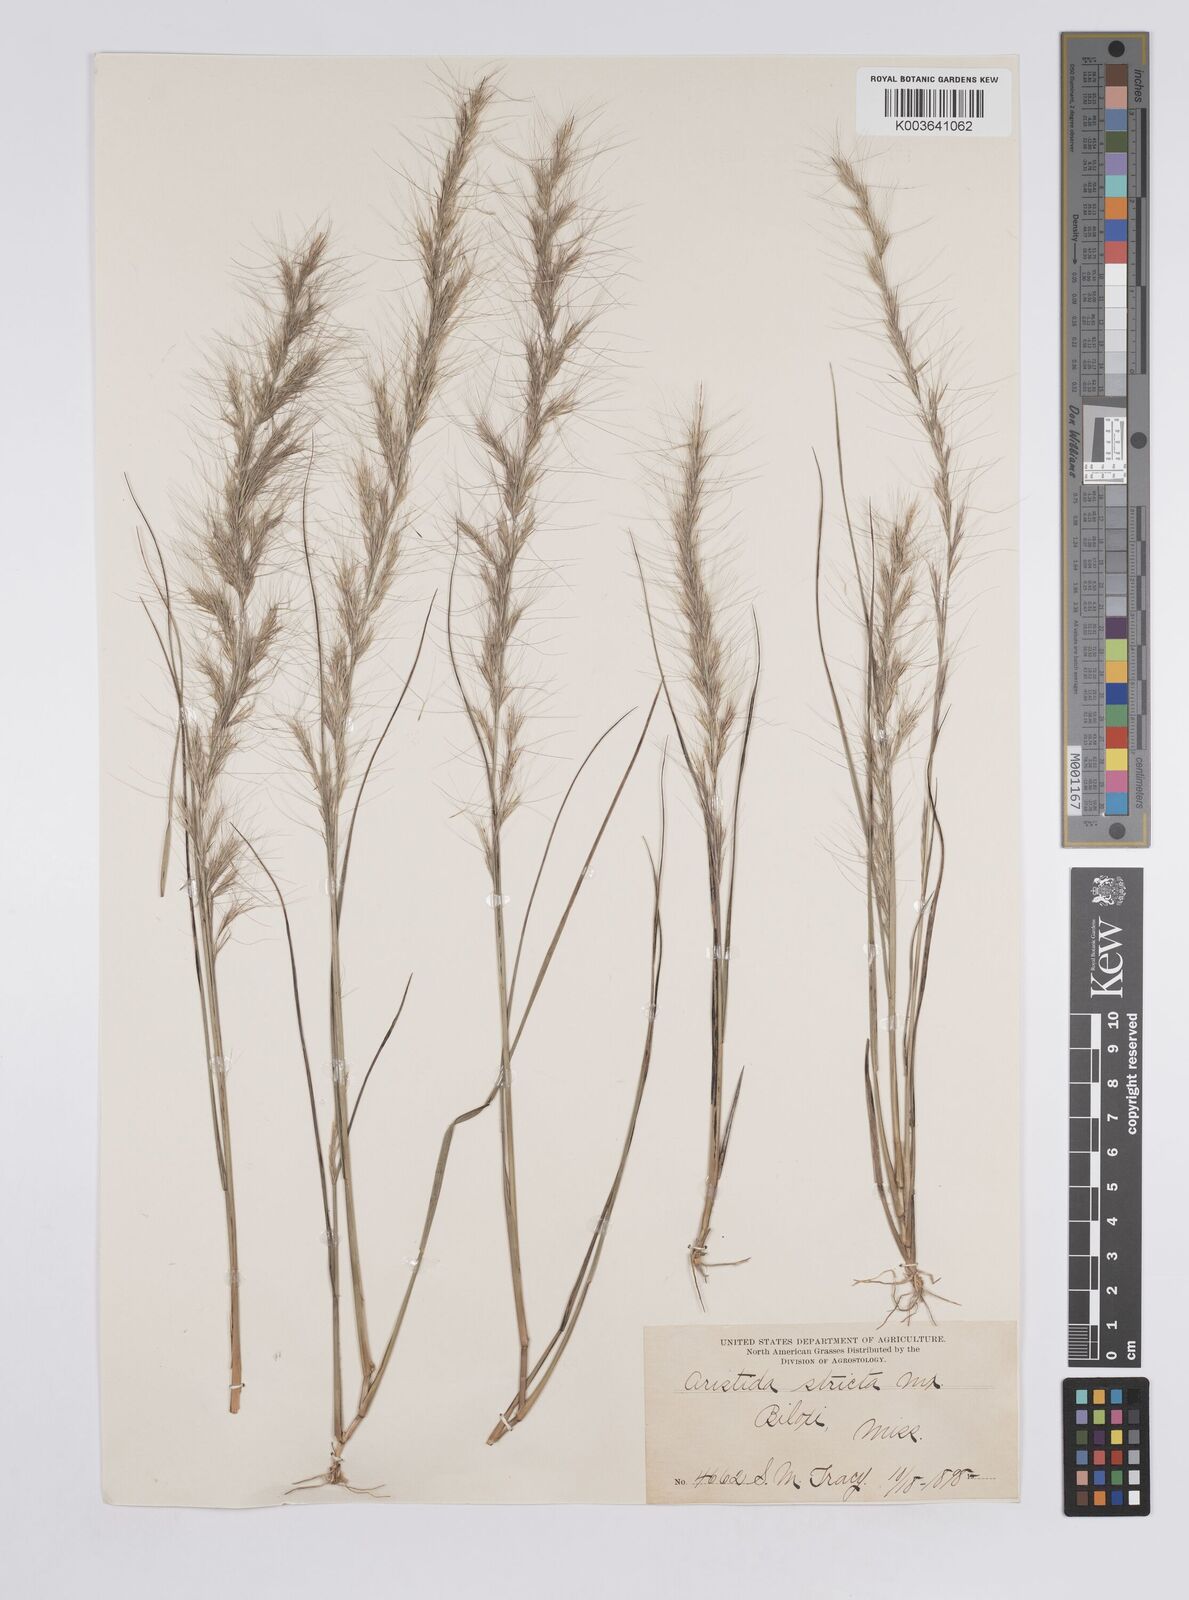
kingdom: Plantae
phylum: Tracheophyta
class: Liliopsida
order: Poales
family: Poaceae
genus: Aristida
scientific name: Aristida stricta
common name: Pineland three-awn
